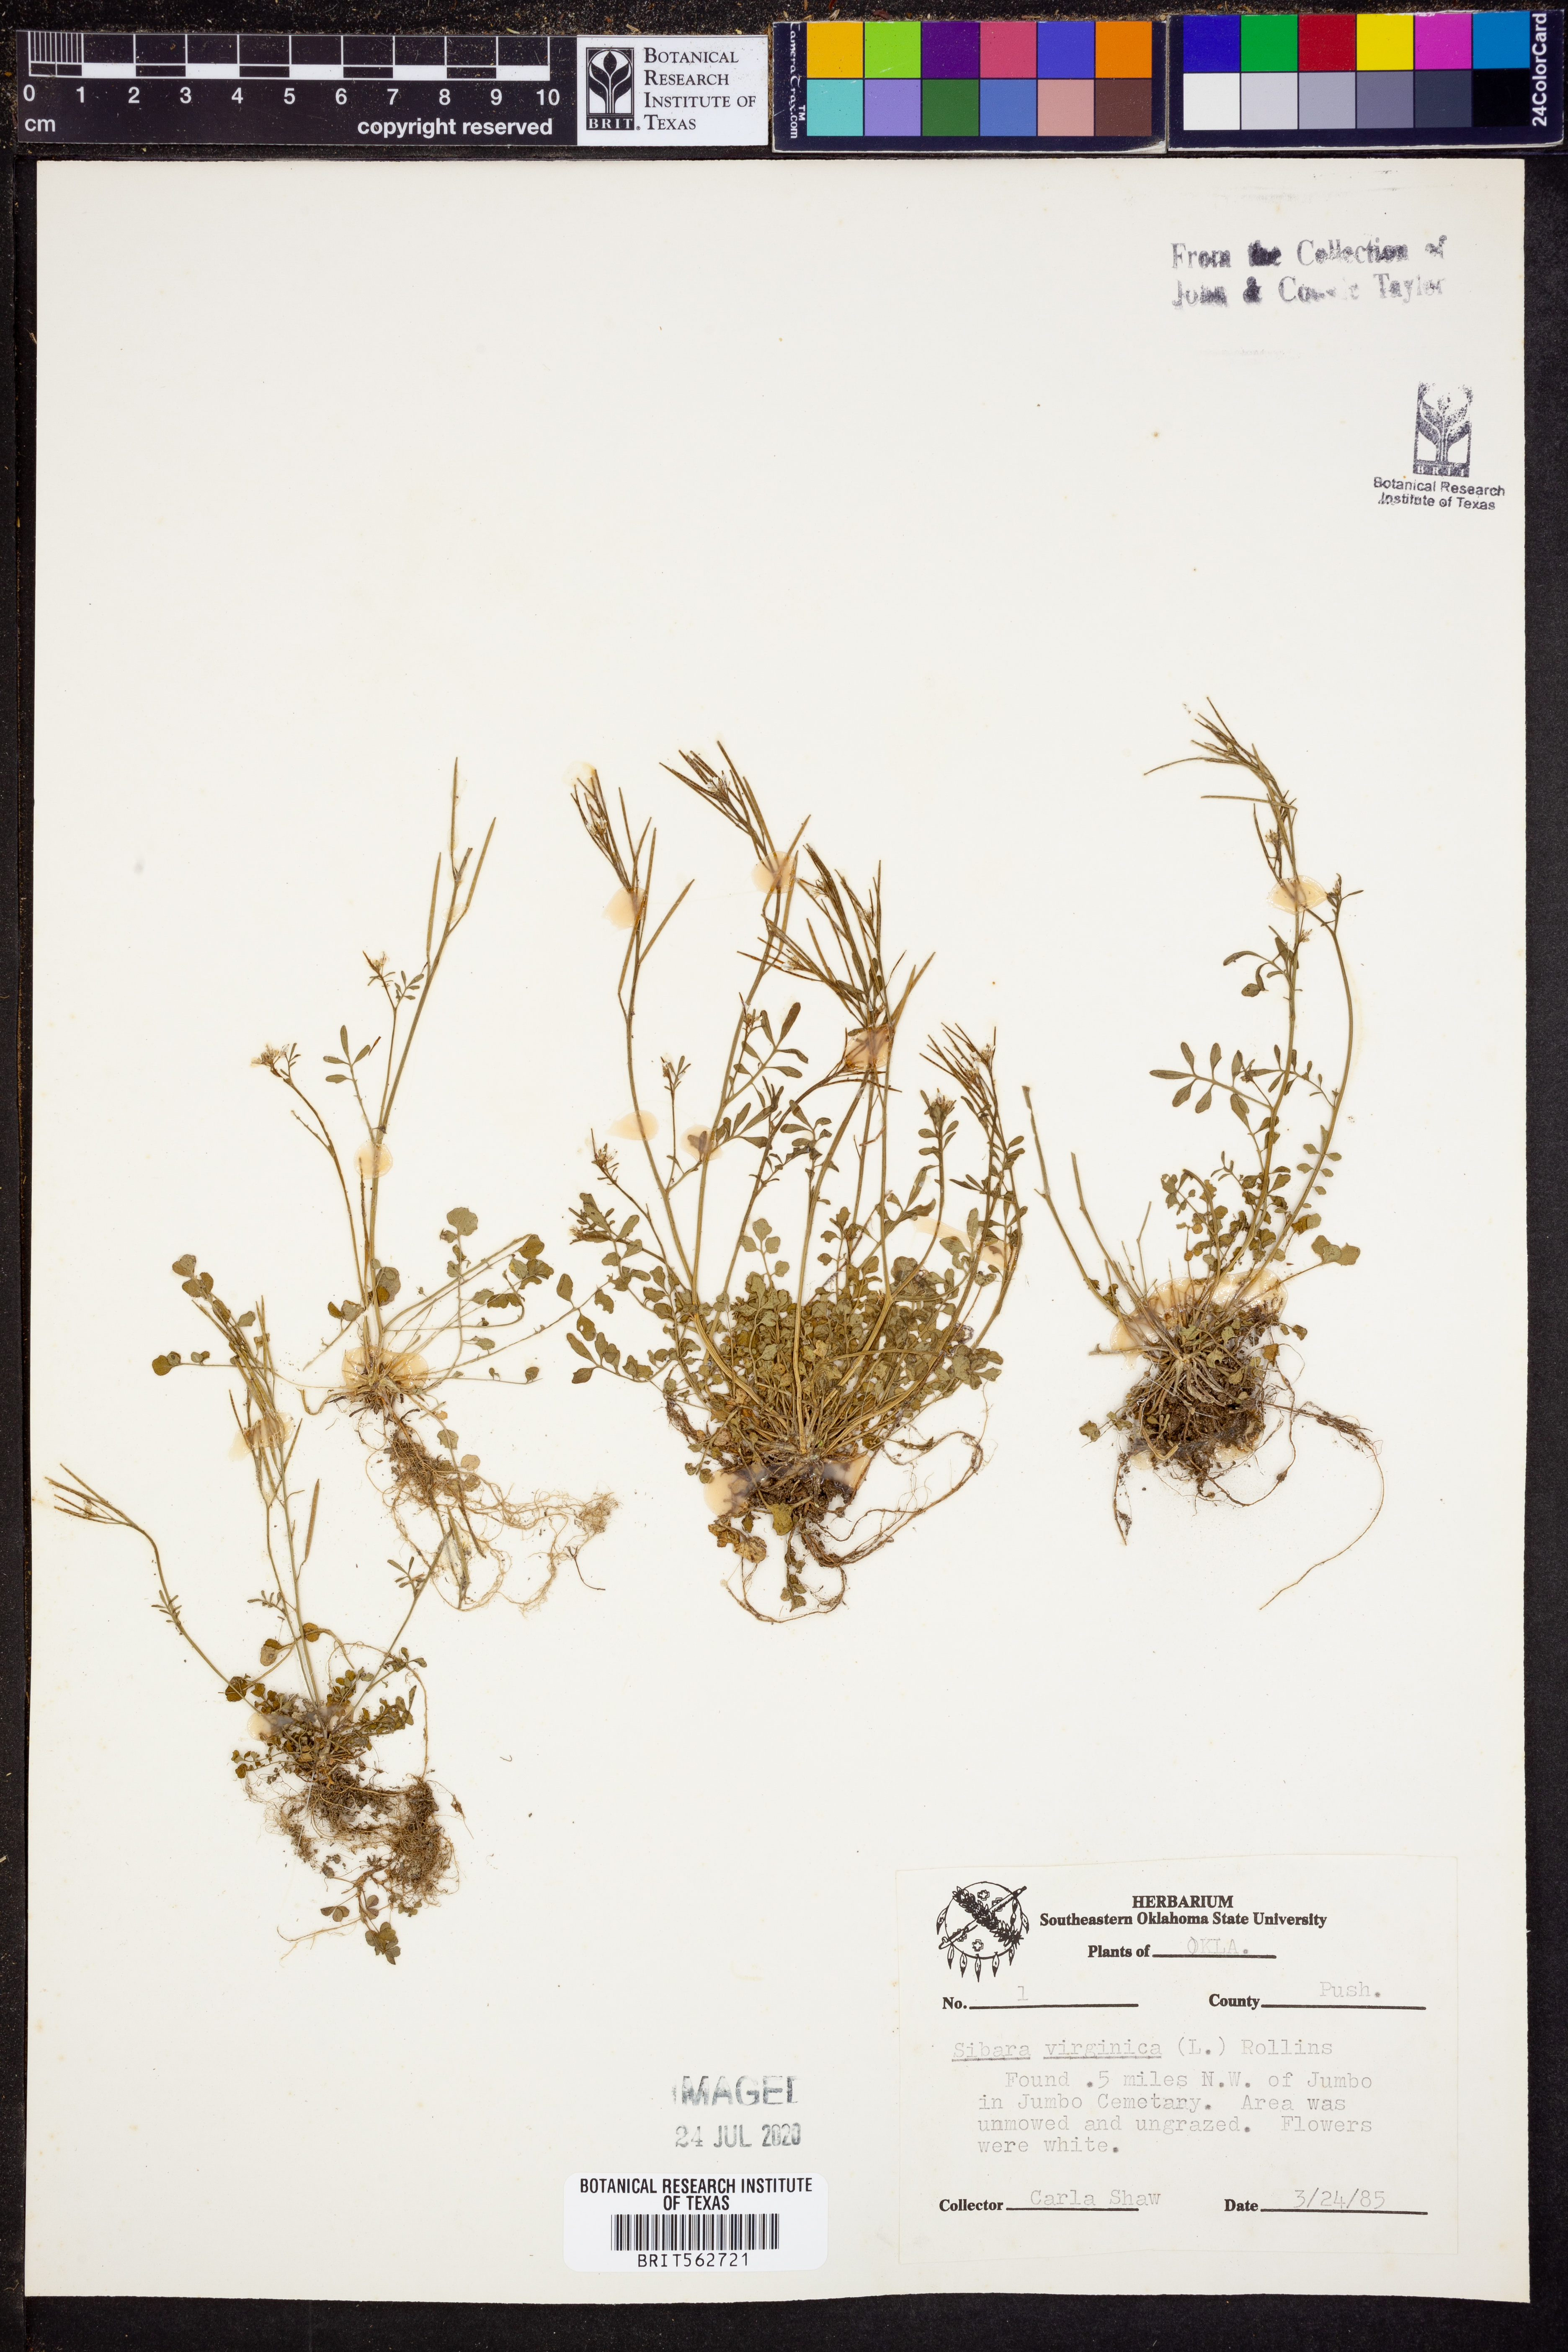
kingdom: Plantae
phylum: Tracheophyta
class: Magnoliopsida
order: Brassicales
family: Brassicaceae
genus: Planodes
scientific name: Planodes virginicum
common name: Virginia cress
